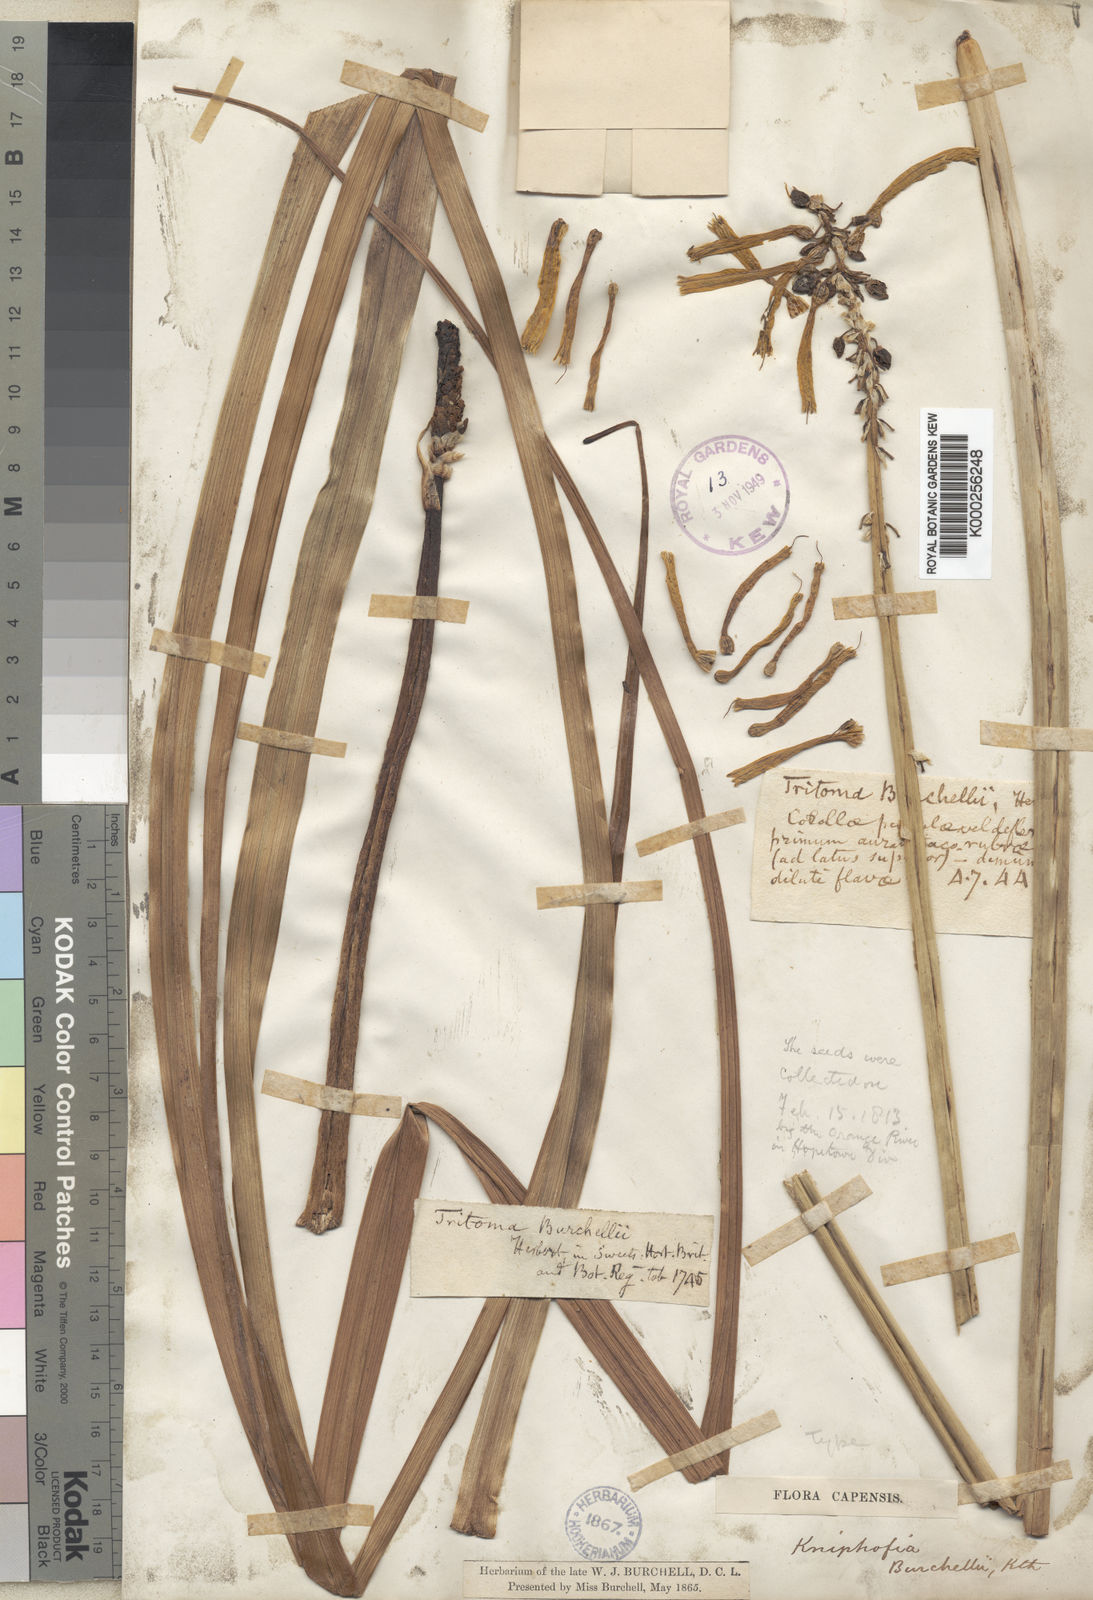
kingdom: Plantae
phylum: Tracheophyta
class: Liliopsida
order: Asparagales
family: Asphodelaceae
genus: Kniphofia
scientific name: Kniphofia uvaria
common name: Red-hot-poker
